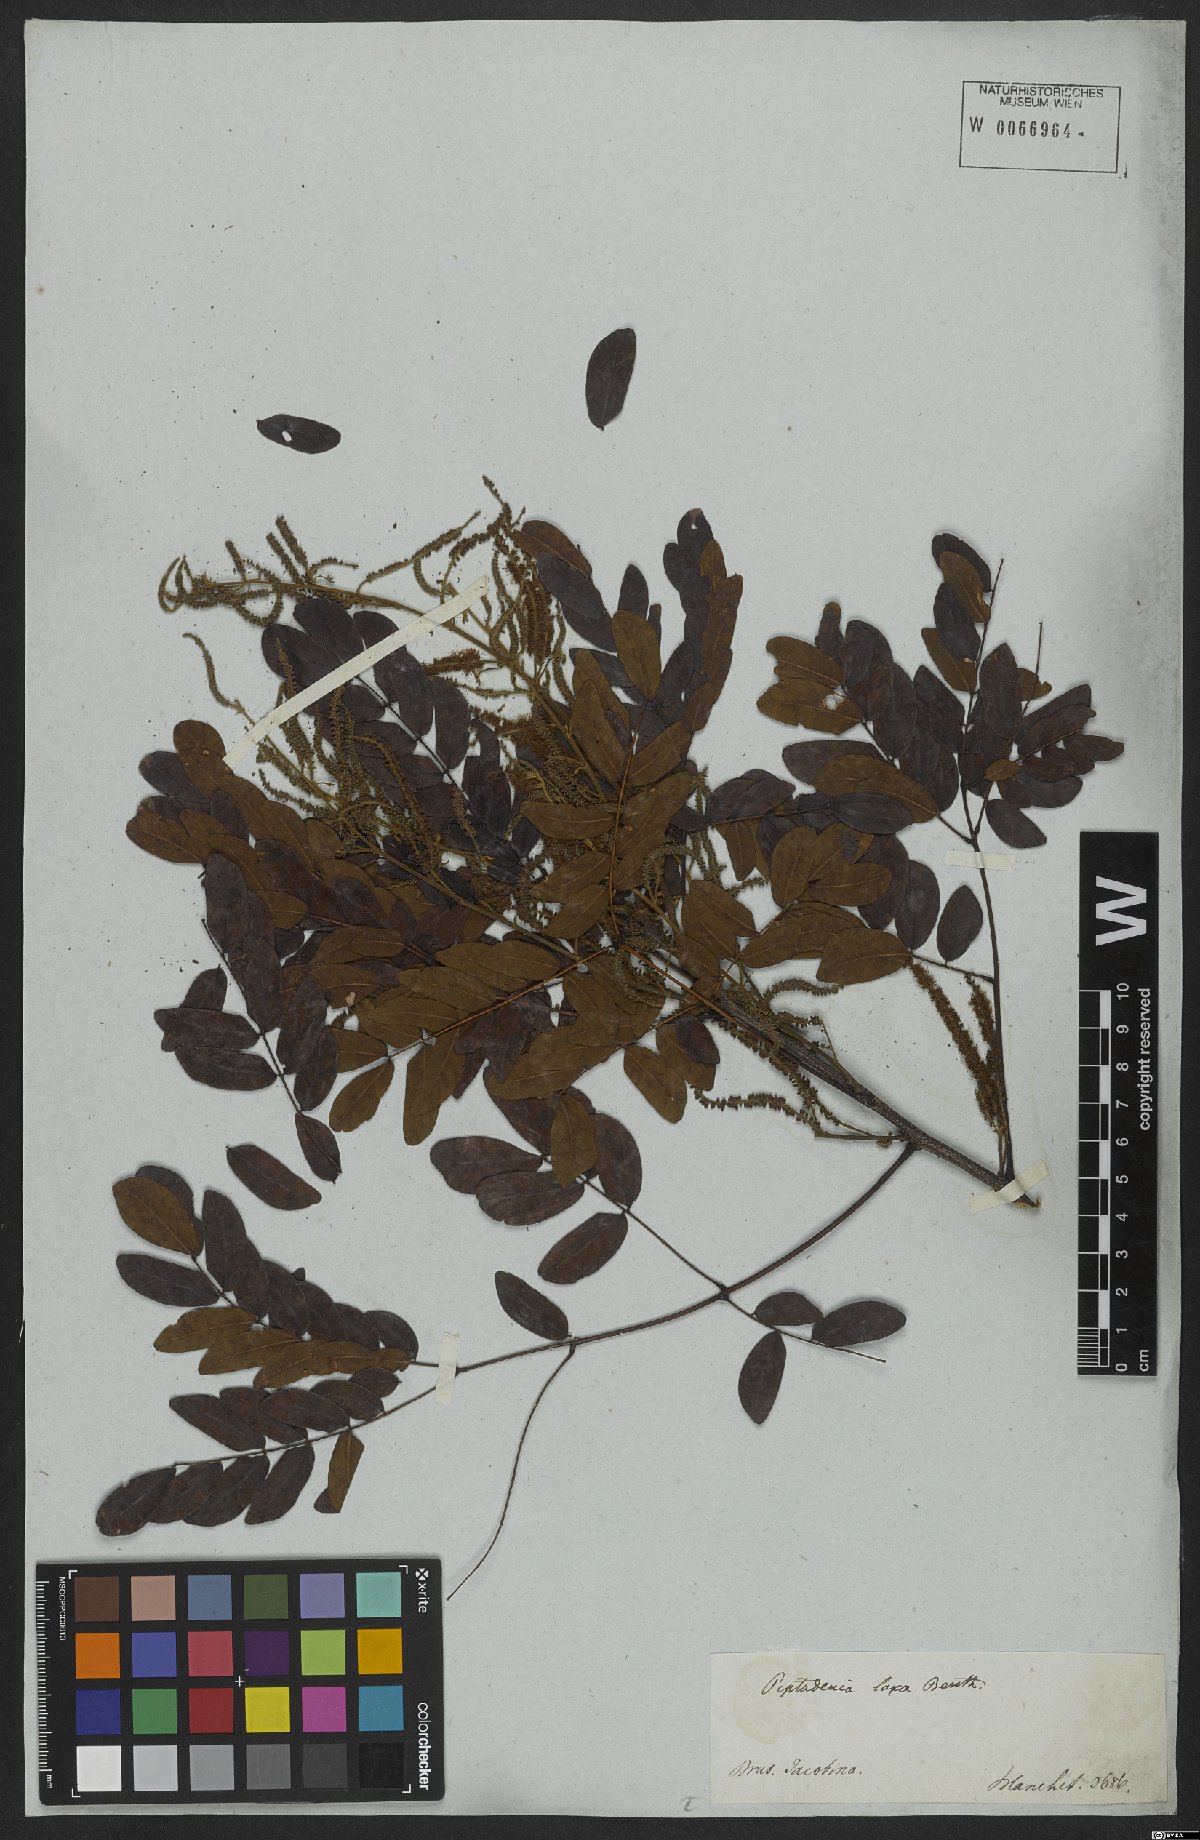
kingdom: Plantae
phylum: Tracheophyta
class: Magnoliopsida
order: Fabales
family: Fabaceae
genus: Piptadenia
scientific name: Piptadenia adiantoides
